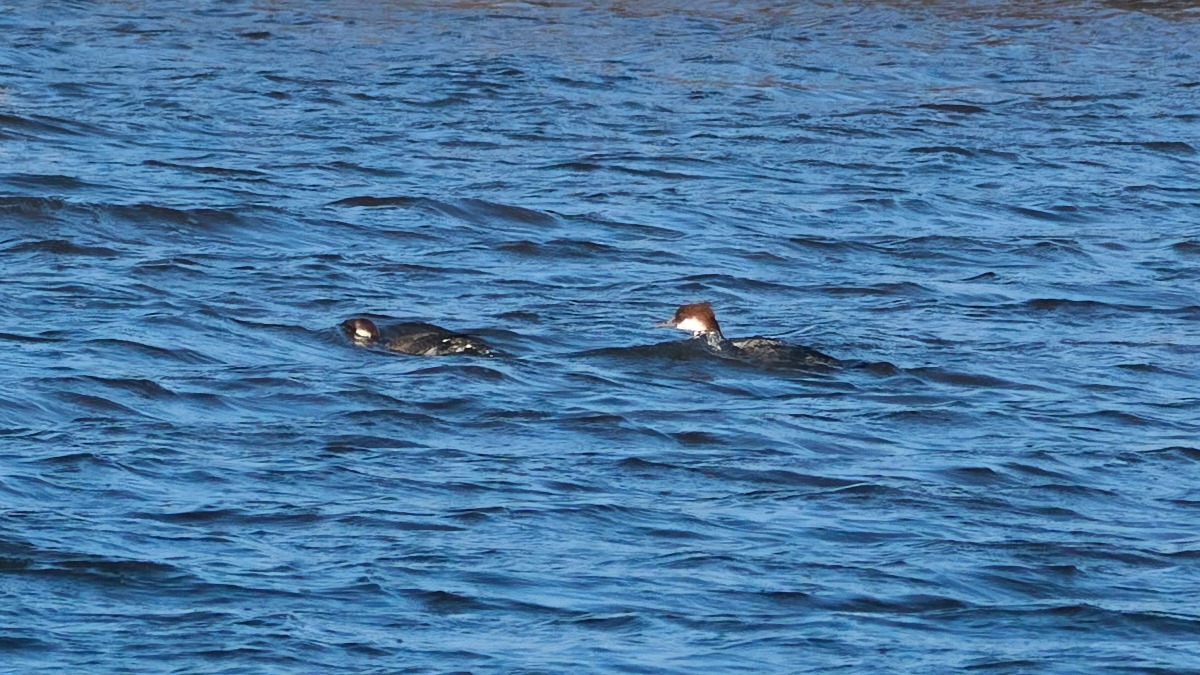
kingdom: Animalia
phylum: Chordata
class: Aves
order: Anseriformes
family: Anatidae
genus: Mergellus
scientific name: Mergellus albellus
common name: Lille skallesluger
